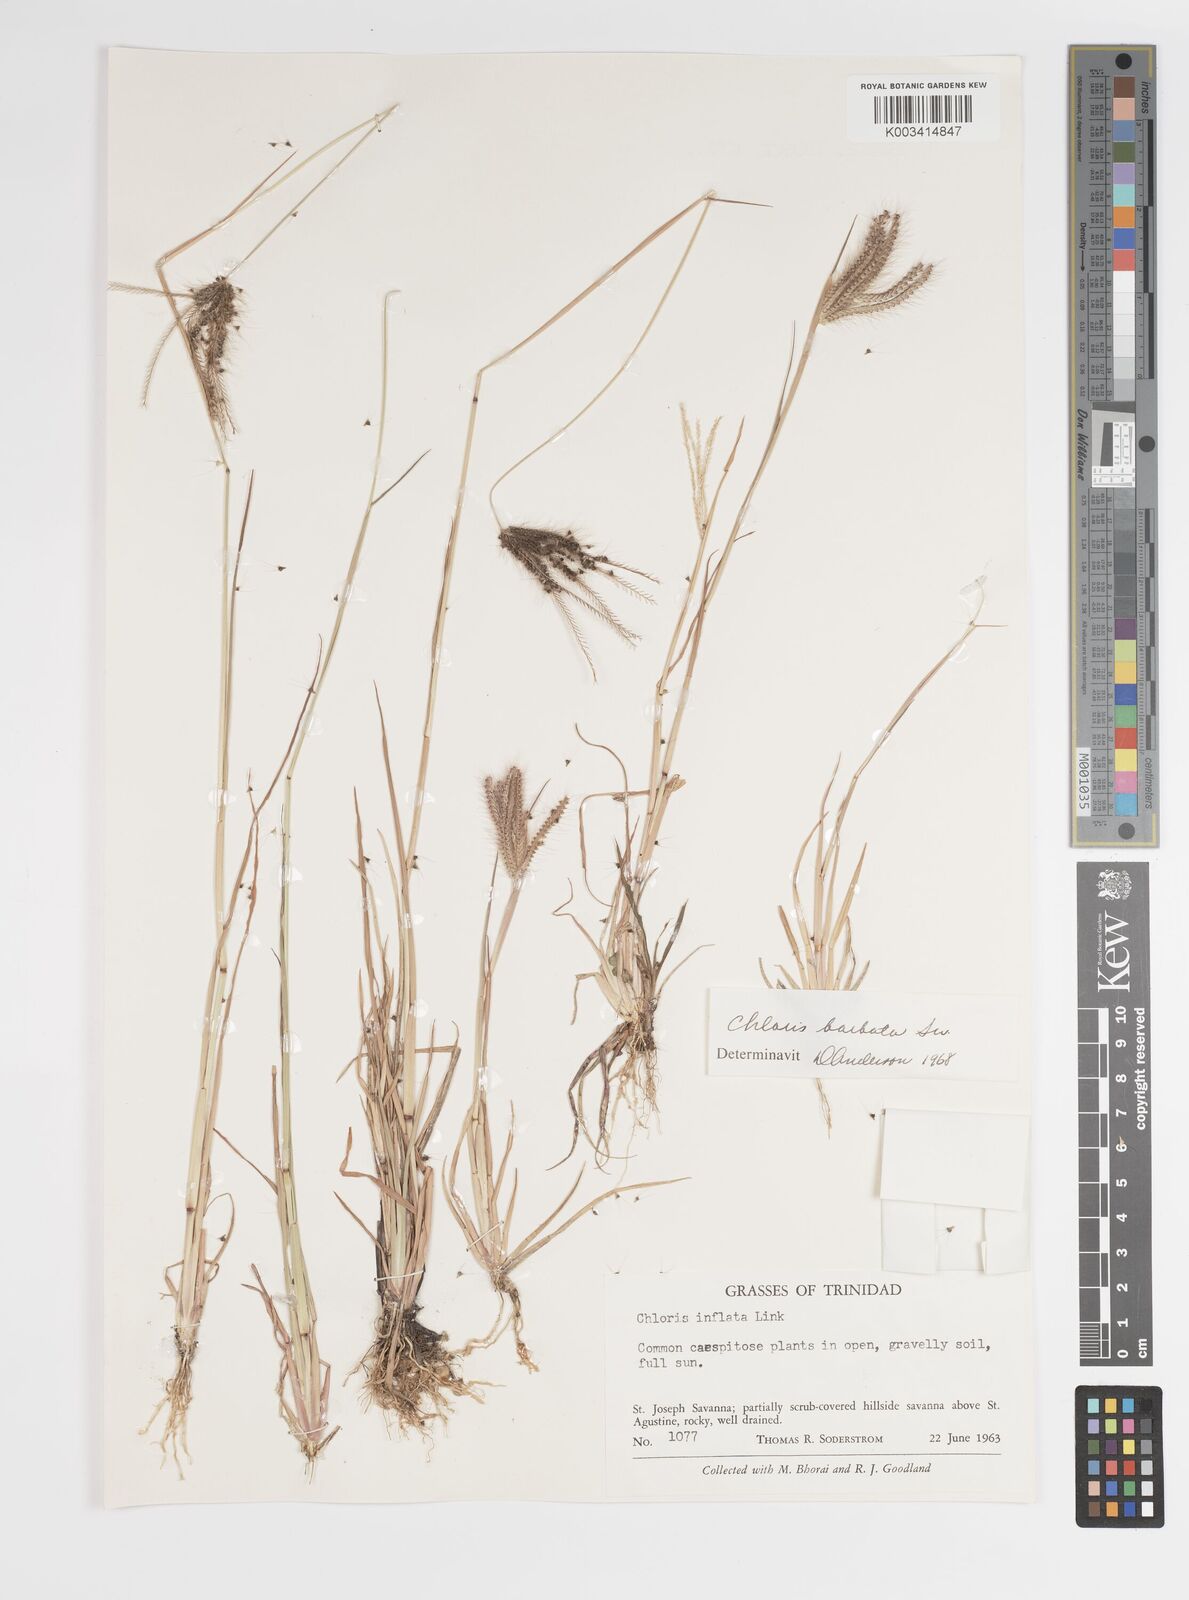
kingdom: Plantae
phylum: Tracheophyta
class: Liliopsida
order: Poales
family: Poaceae
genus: Chloris
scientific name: Chloris barbata
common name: Swollen fingergrass
